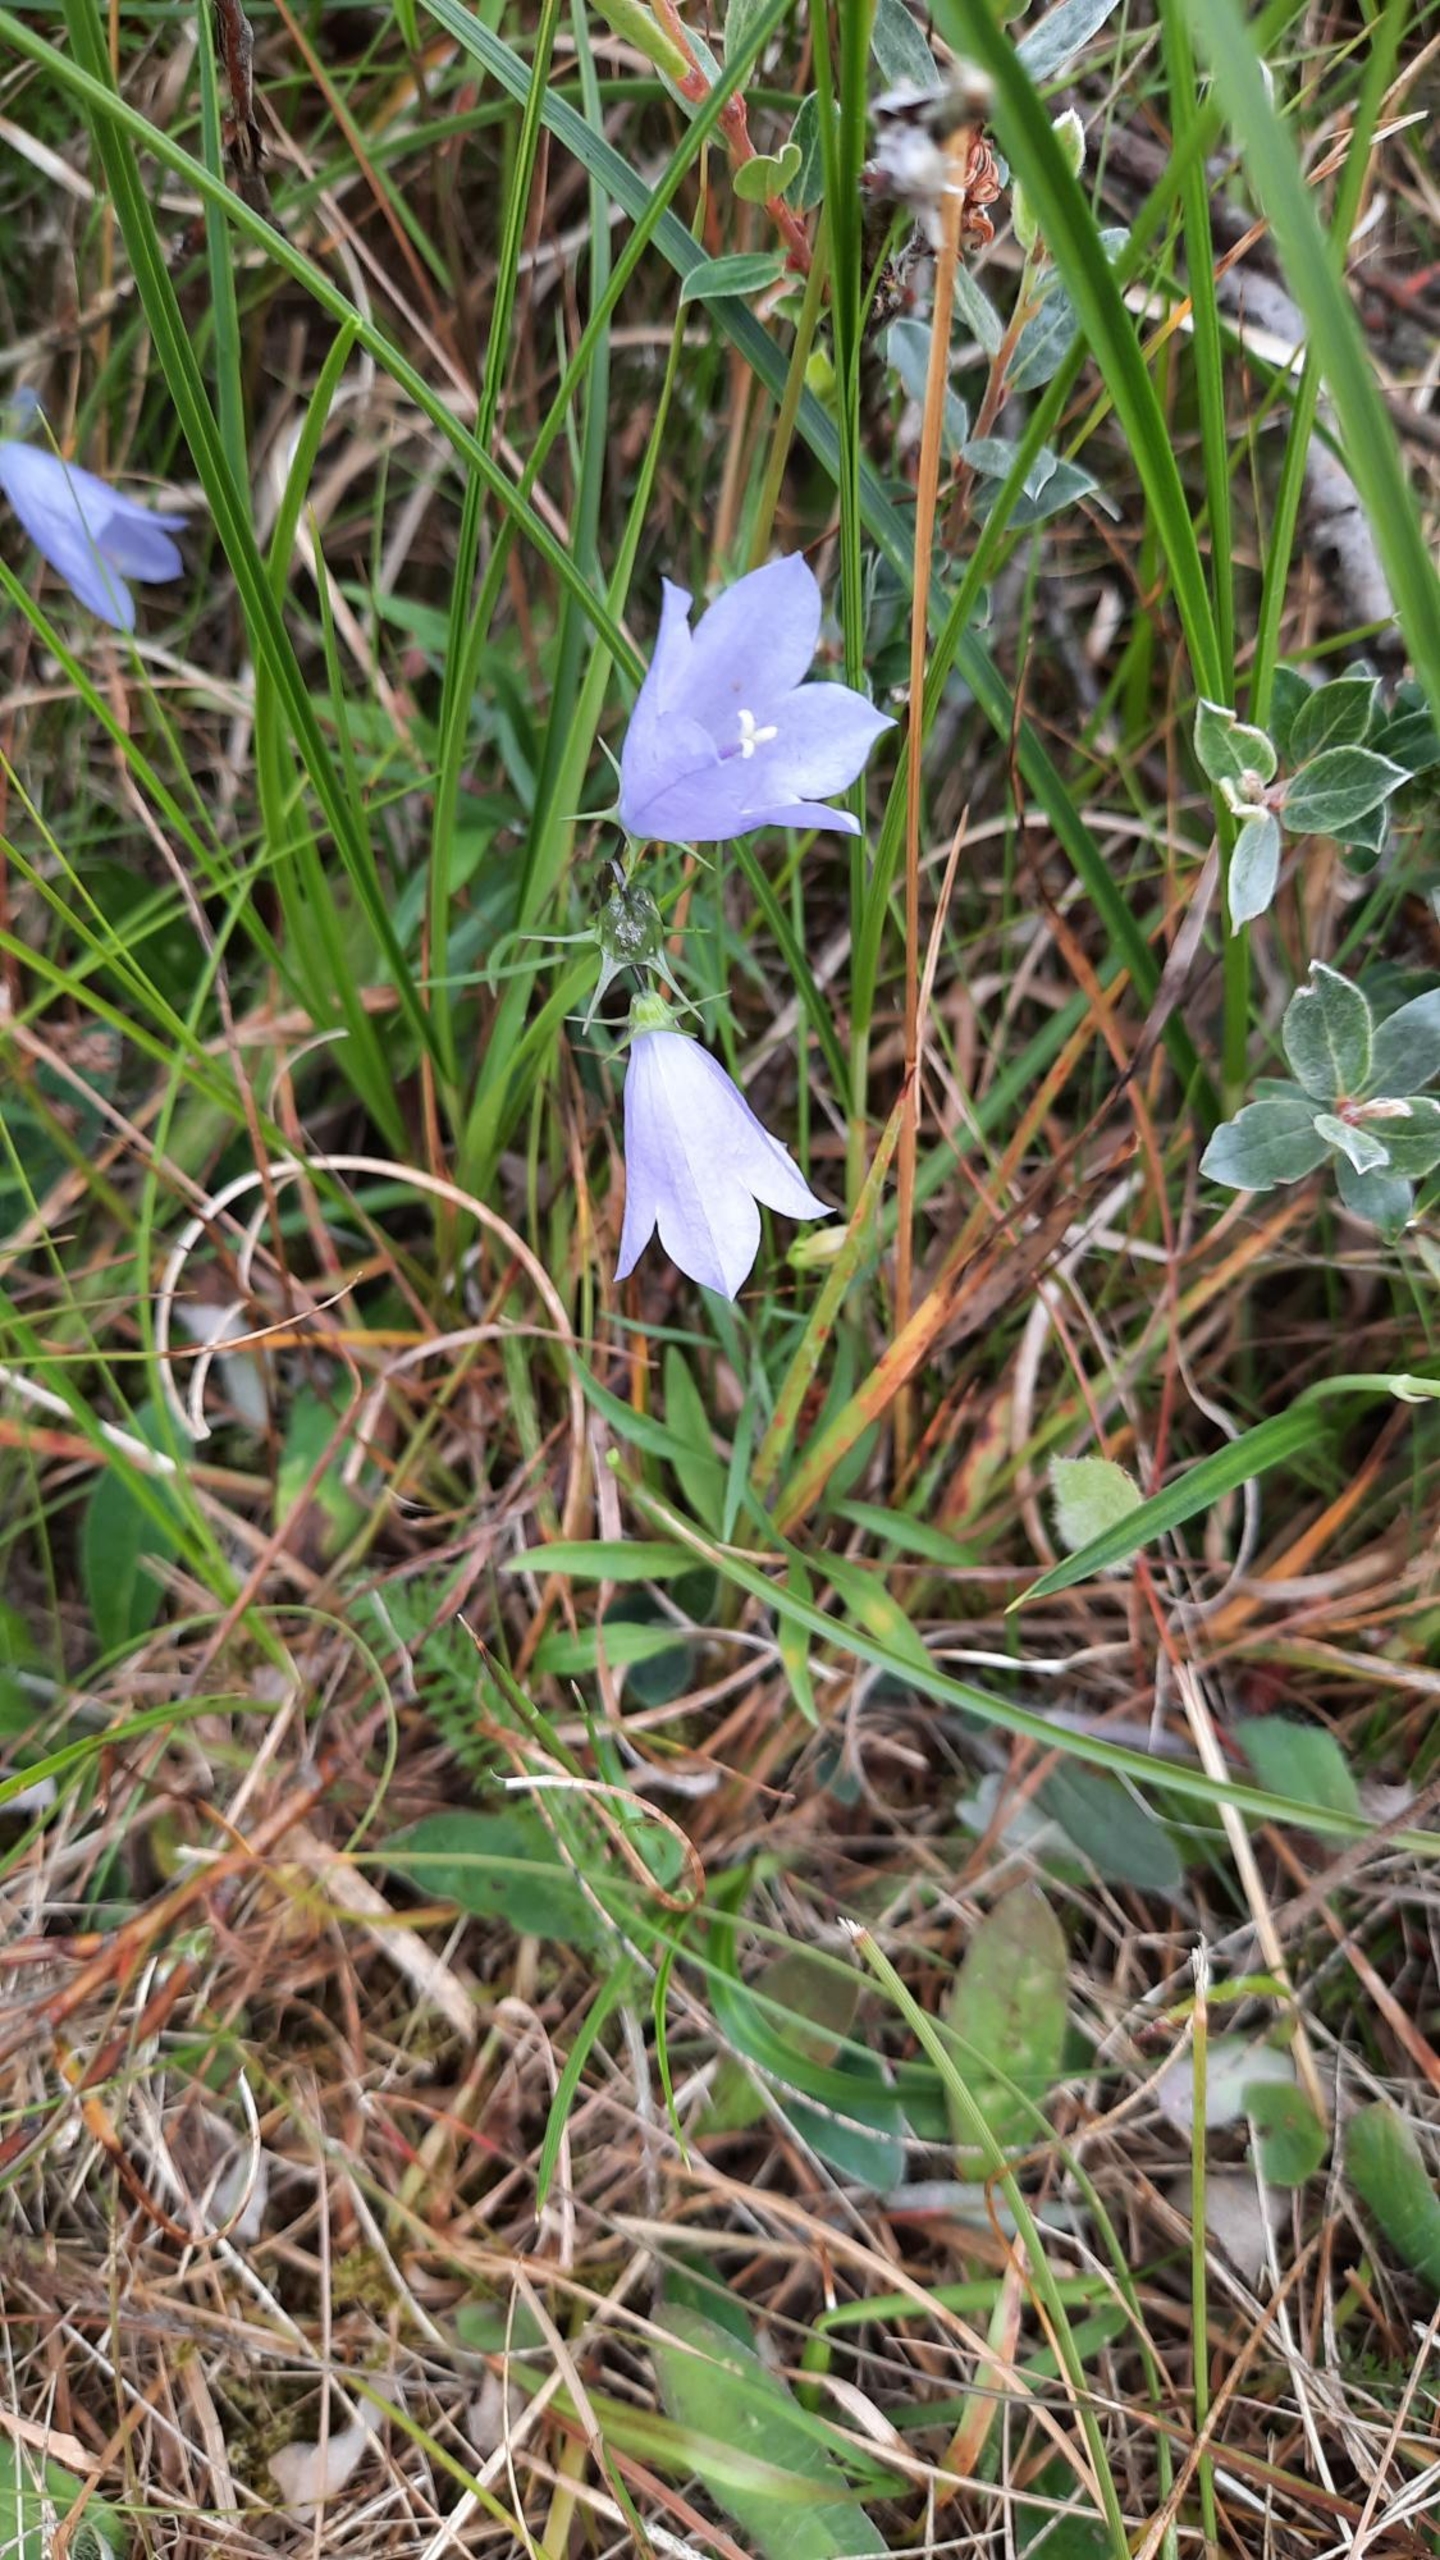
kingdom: Plantae
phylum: Tracheophyta
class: Magnoliopsida
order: Asterales
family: Campanulaceae
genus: Campanula
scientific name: Campanula rotundifolia
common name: Liden klokke
